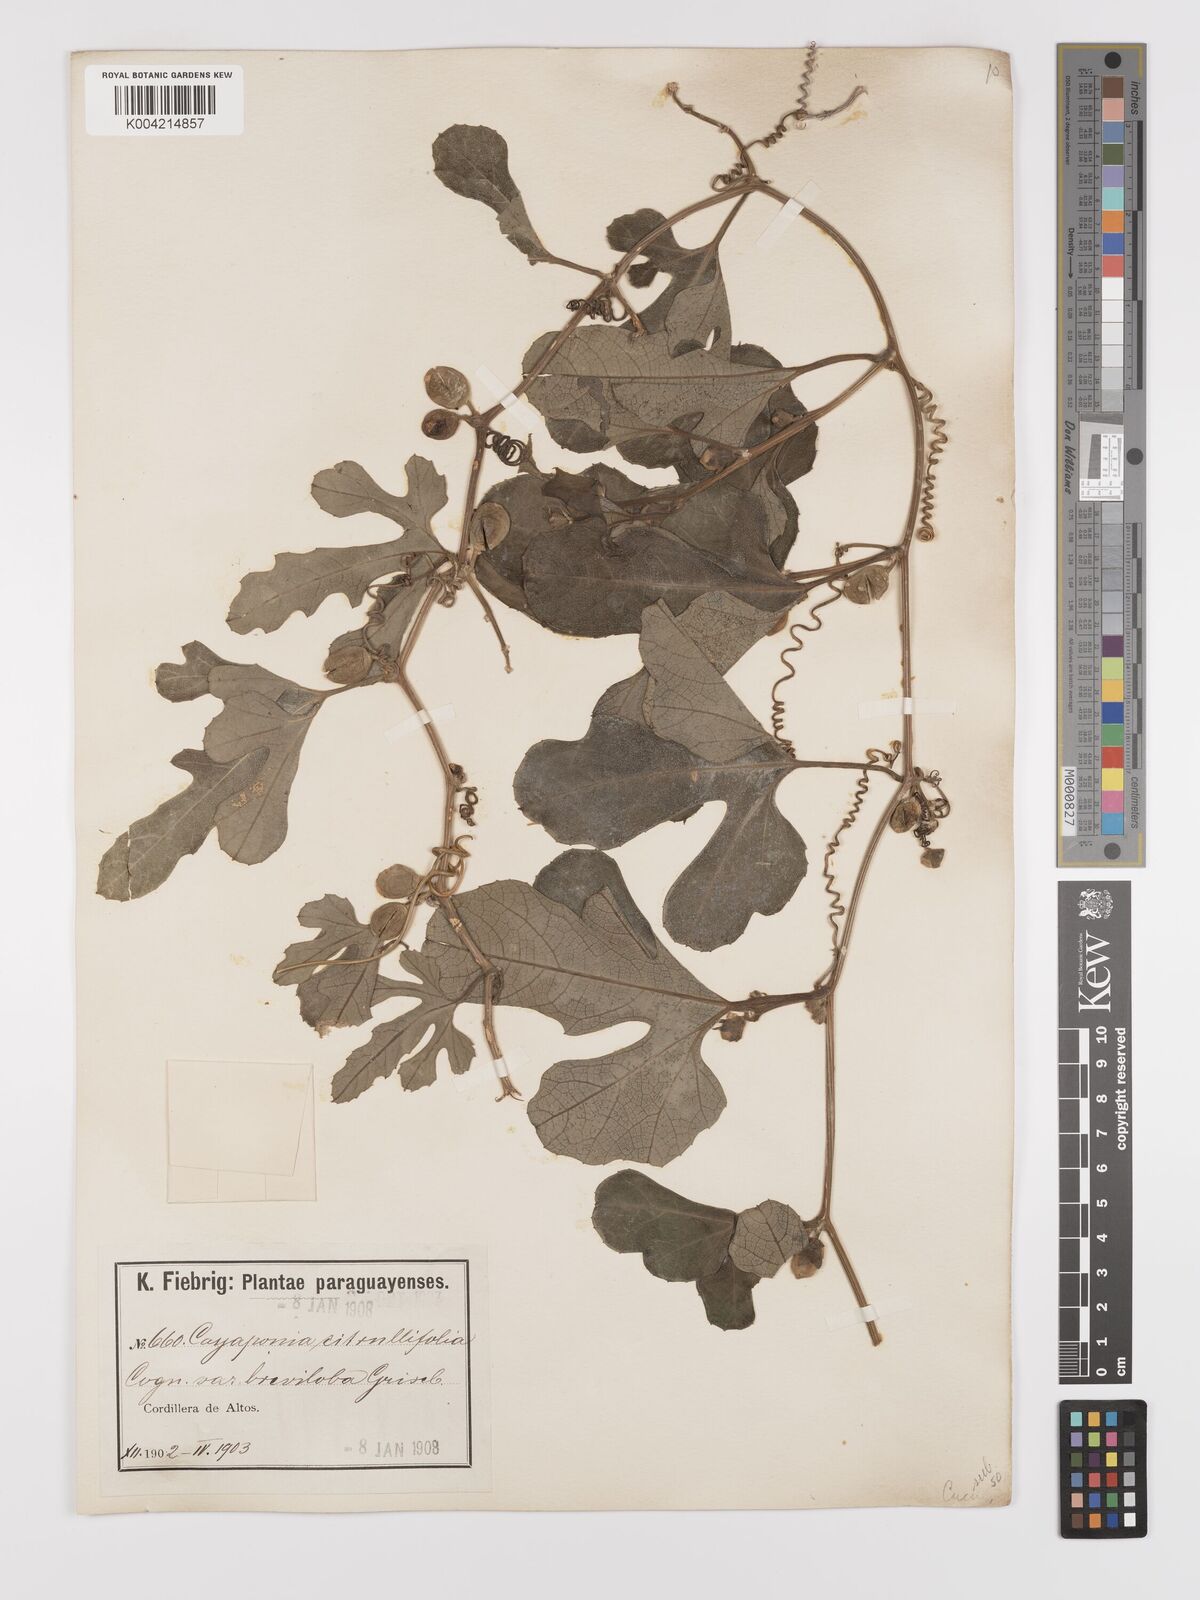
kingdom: Plantae
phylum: Tracheophyta
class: Magnoliopsida
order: Cucurbitales
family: Cucurbitaceae
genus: Cayaponia
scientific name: Cayaponia citrullifolia
